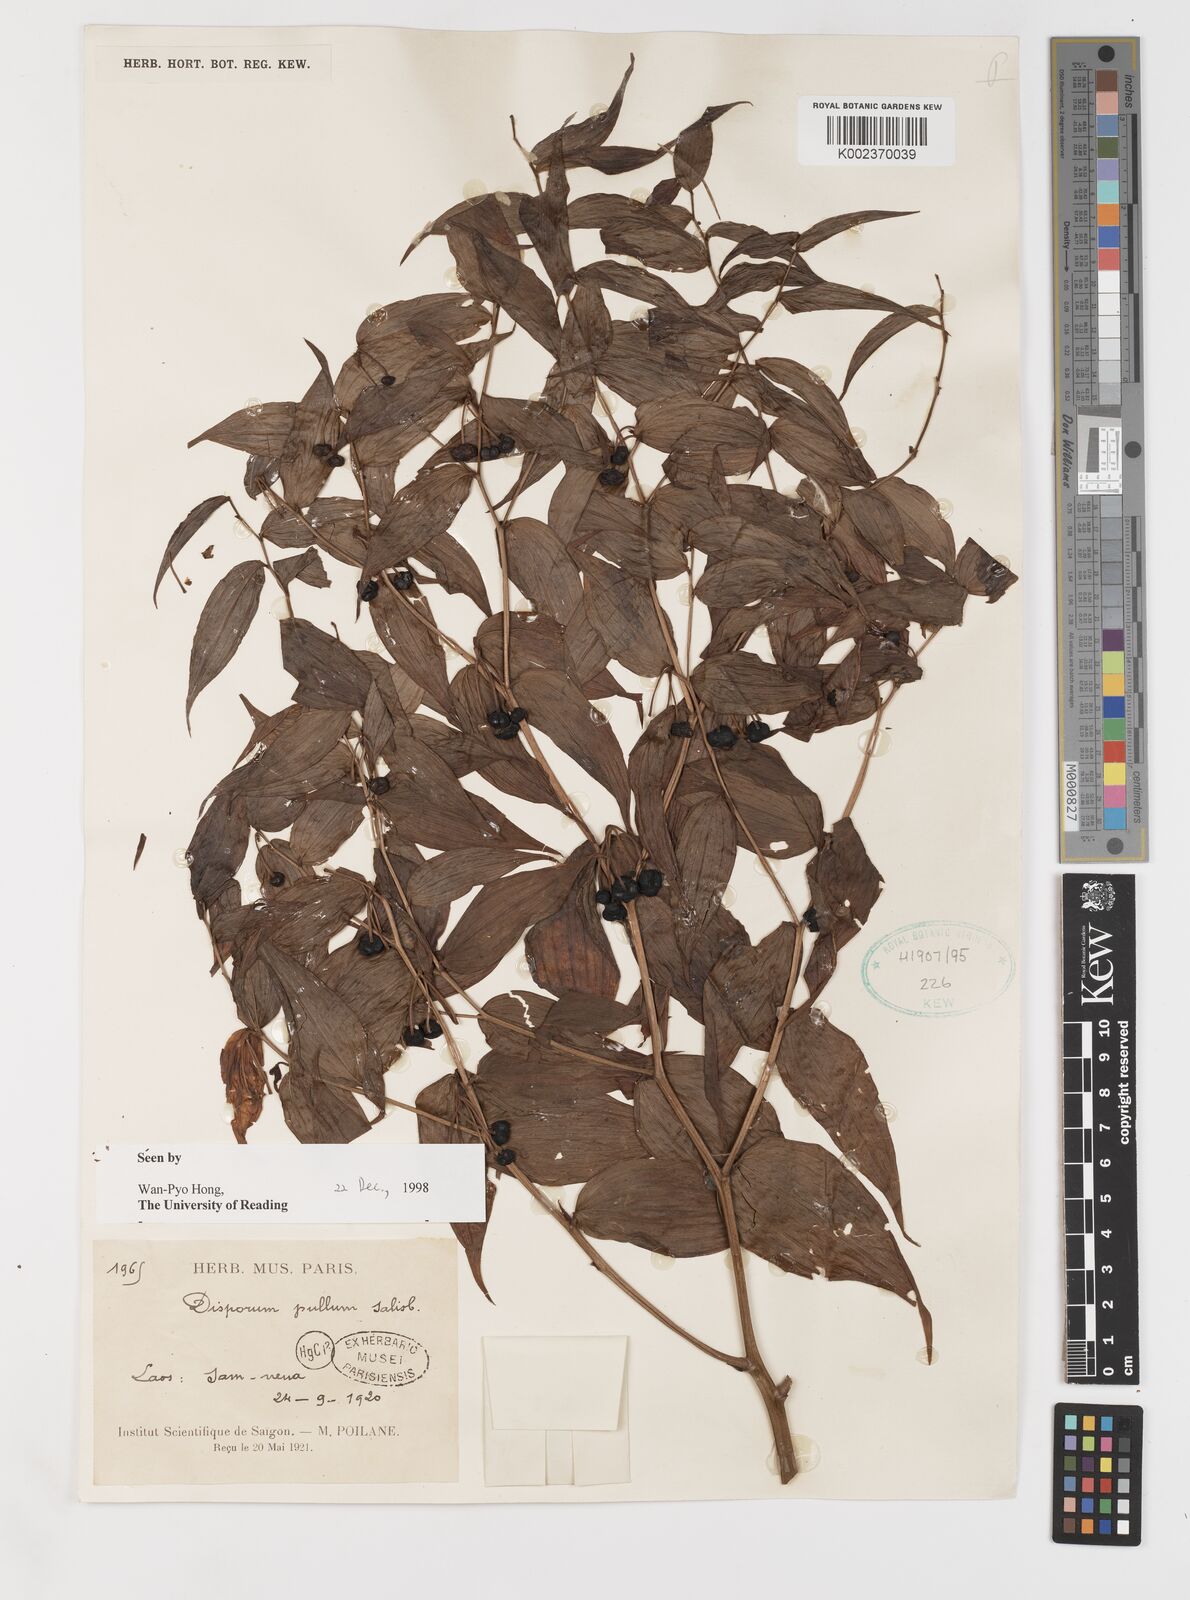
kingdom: Plantae
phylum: Tracheophyta
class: Liliopsida
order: Liliales
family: Colchicaceae
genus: Disporum
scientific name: Disporum cantoniense
